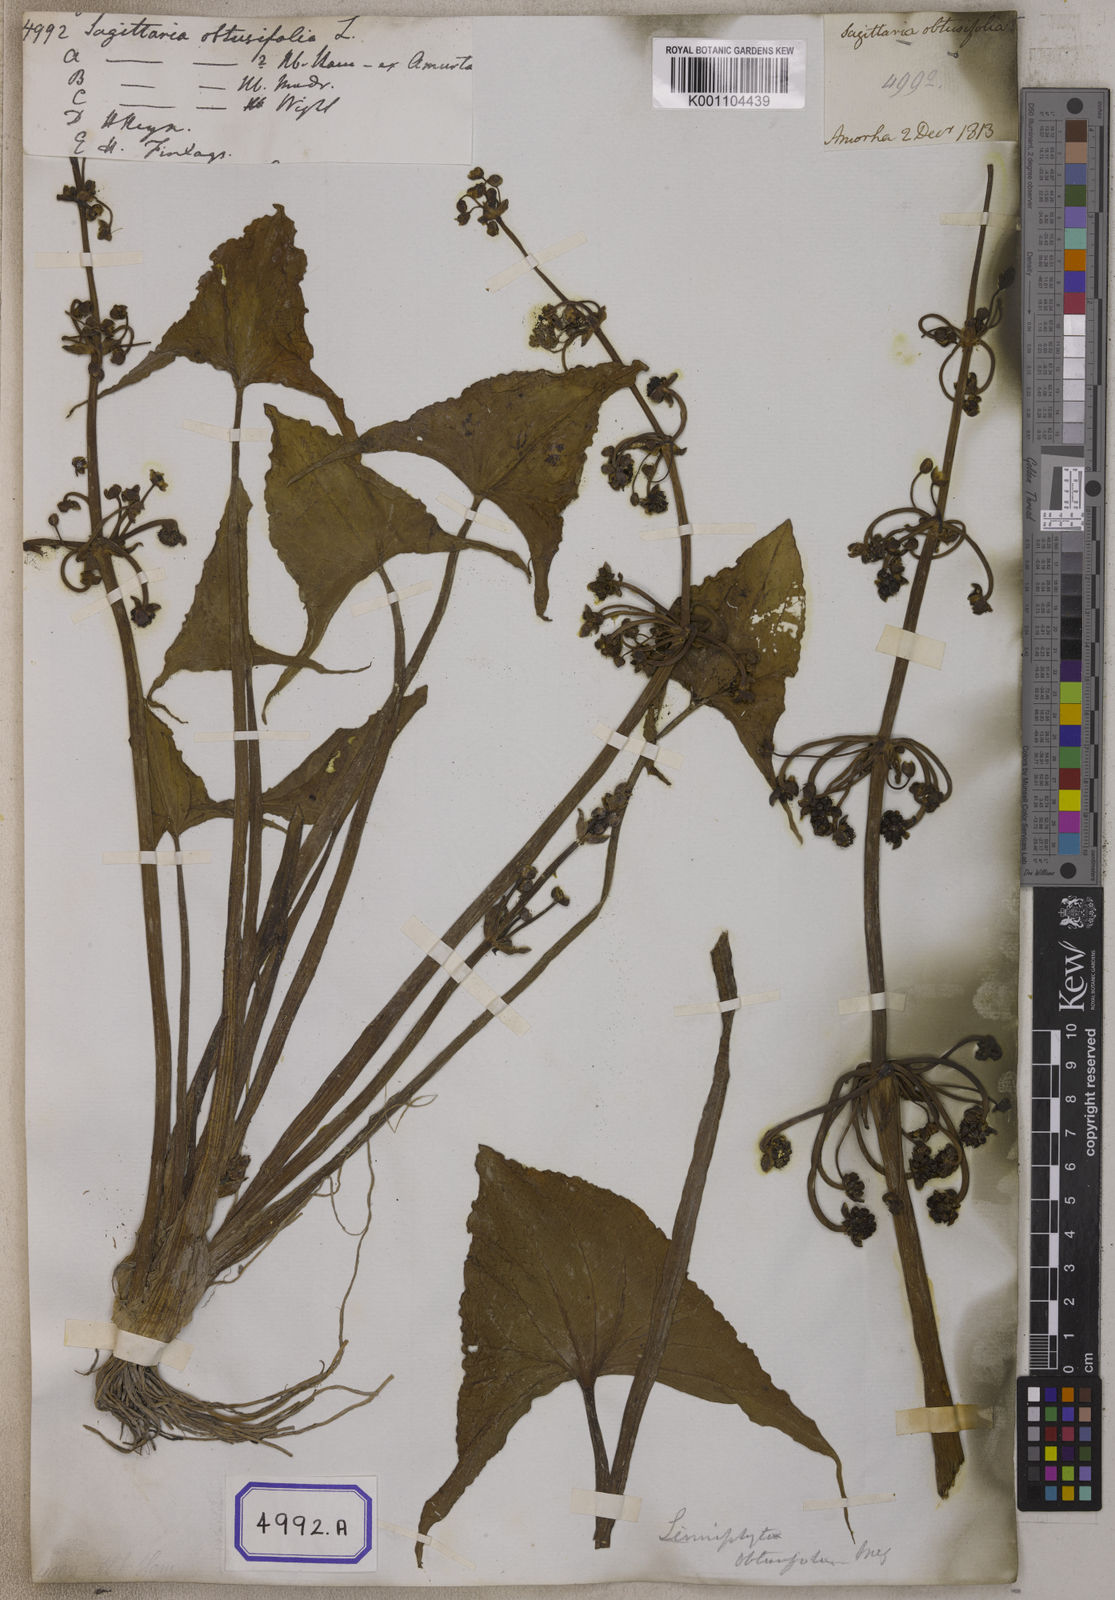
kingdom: Plantae
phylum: Tracheophyta
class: Liliopsida
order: Alismatales
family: Alismataceae
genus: Limnophyton
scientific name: Limnophyton obtusifolium
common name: Arrow head
